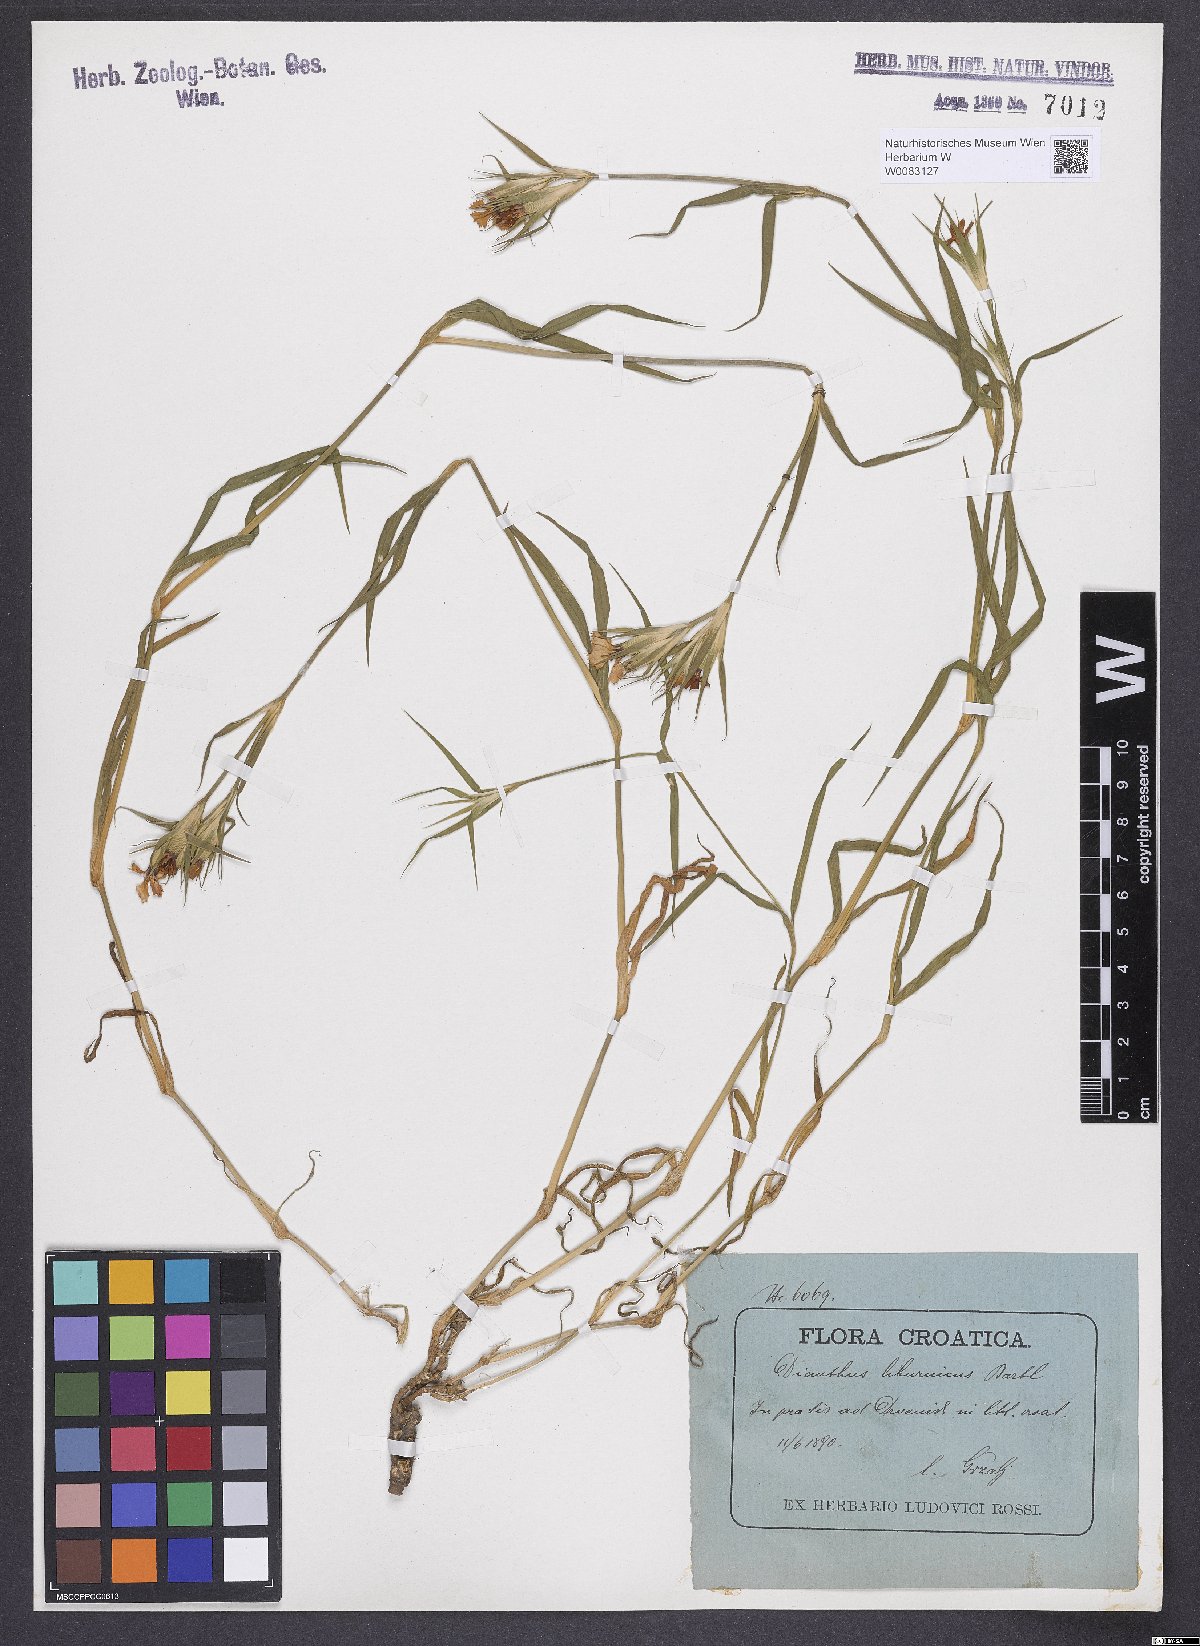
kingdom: Plantae
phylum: Tracheophyta
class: Magnoliopsida
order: Caryophyllales
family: Caryophyllaceae
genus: Dianthus
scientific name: Dianthus balbisii
